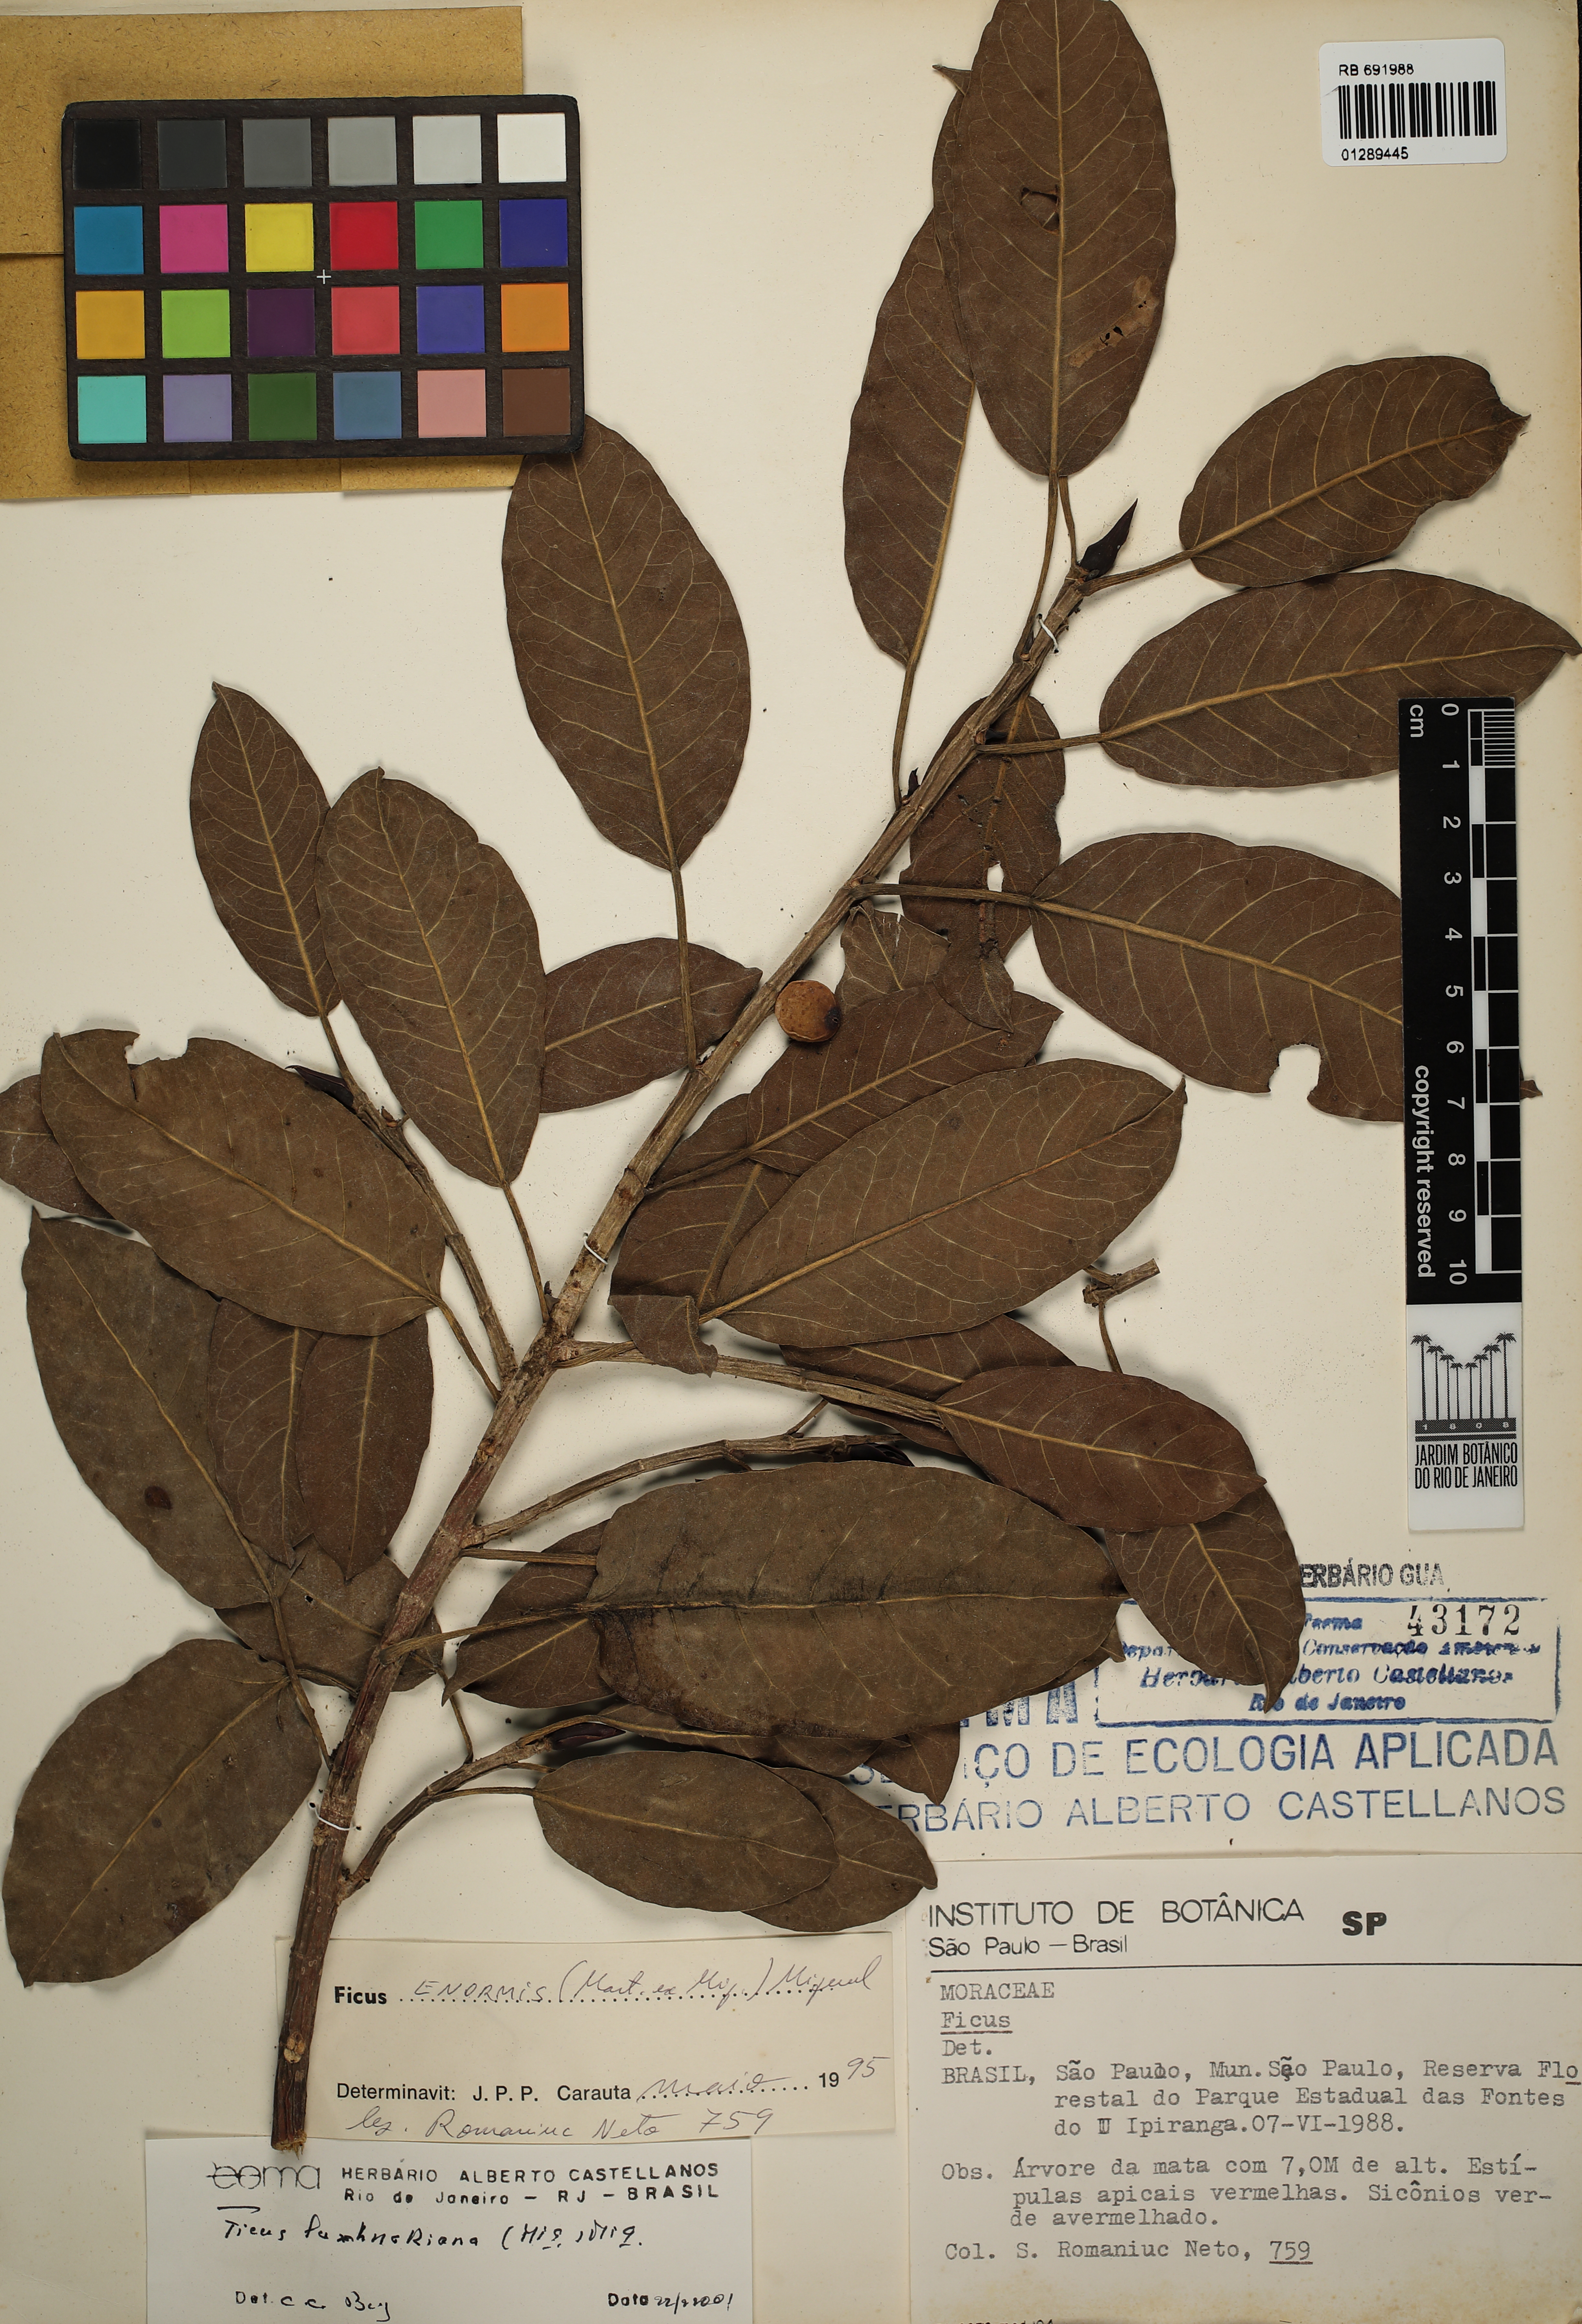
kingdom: Plantae
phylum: Tracheophyta
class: Magnoliopsida
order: Rosales
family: Moraceae
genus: Ficus
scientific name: Ficus luschnathiana
